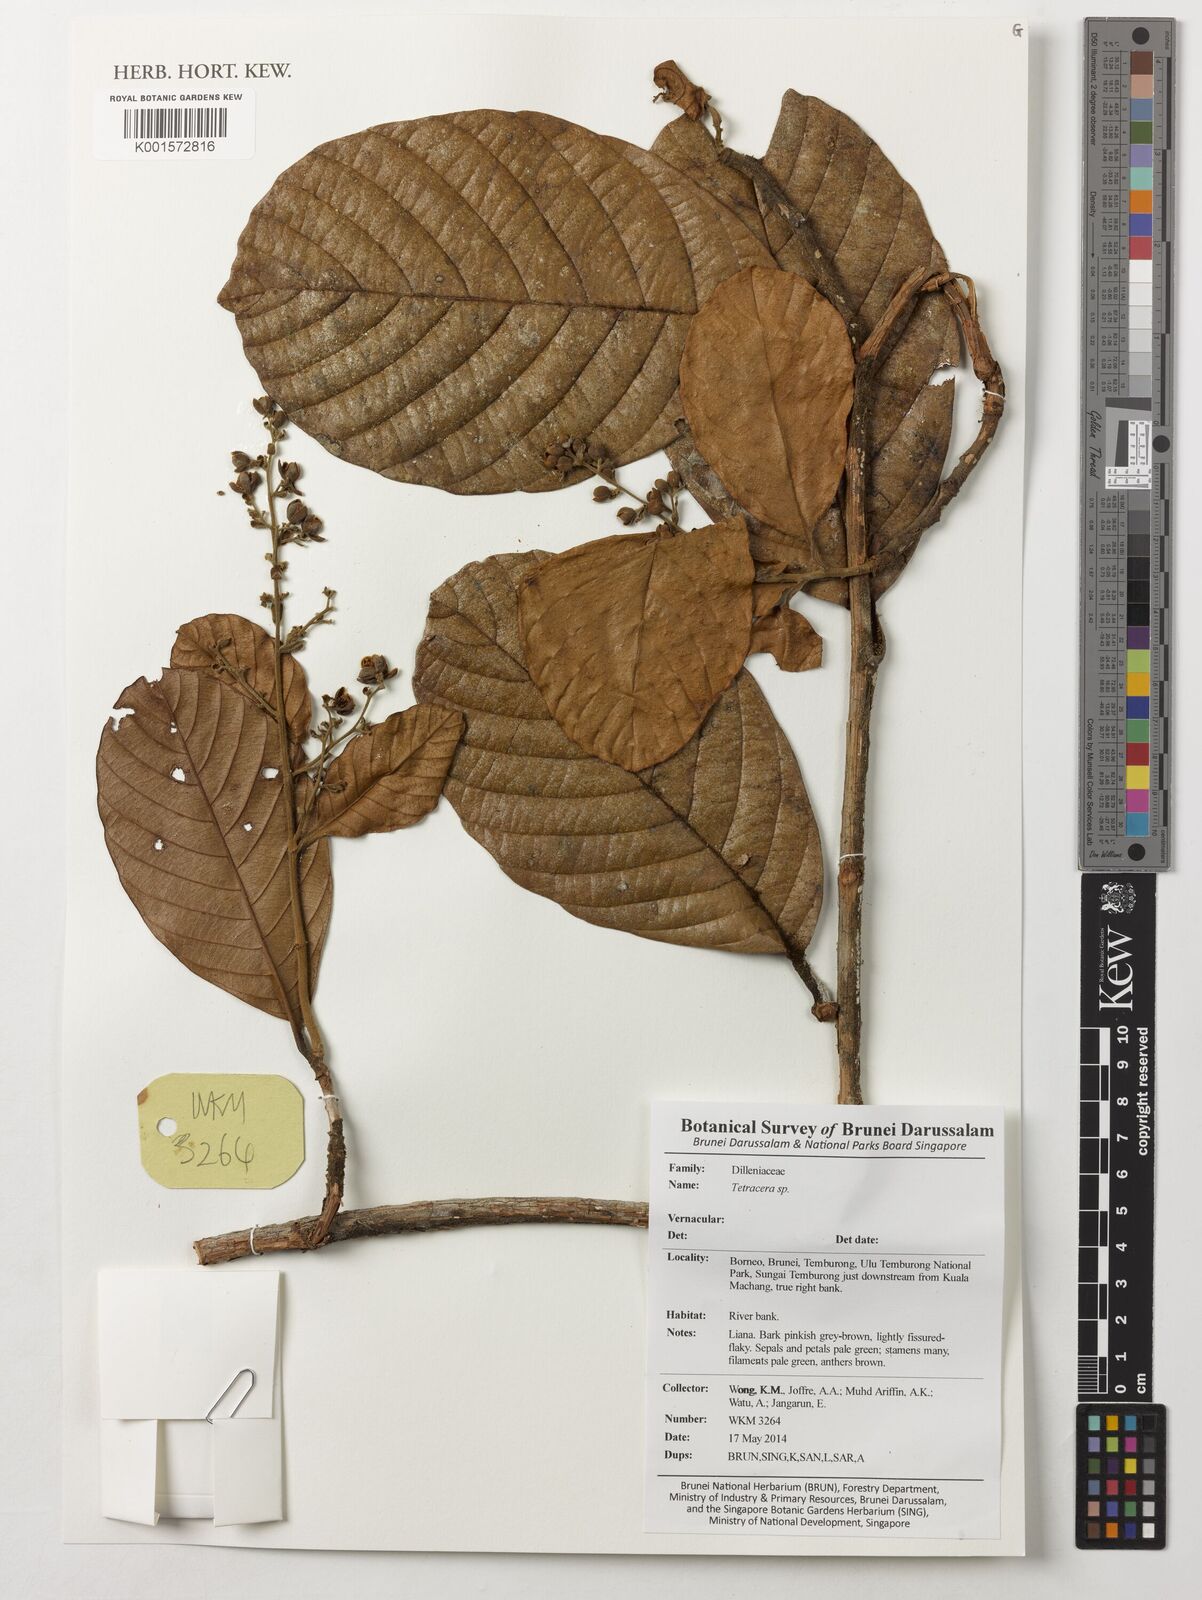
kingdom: Plantae
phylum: Tracheophyta
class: Magnoliopsida
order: Dilleniales
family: Dilleniaceae
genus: Tetracera
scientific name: Tetracera
